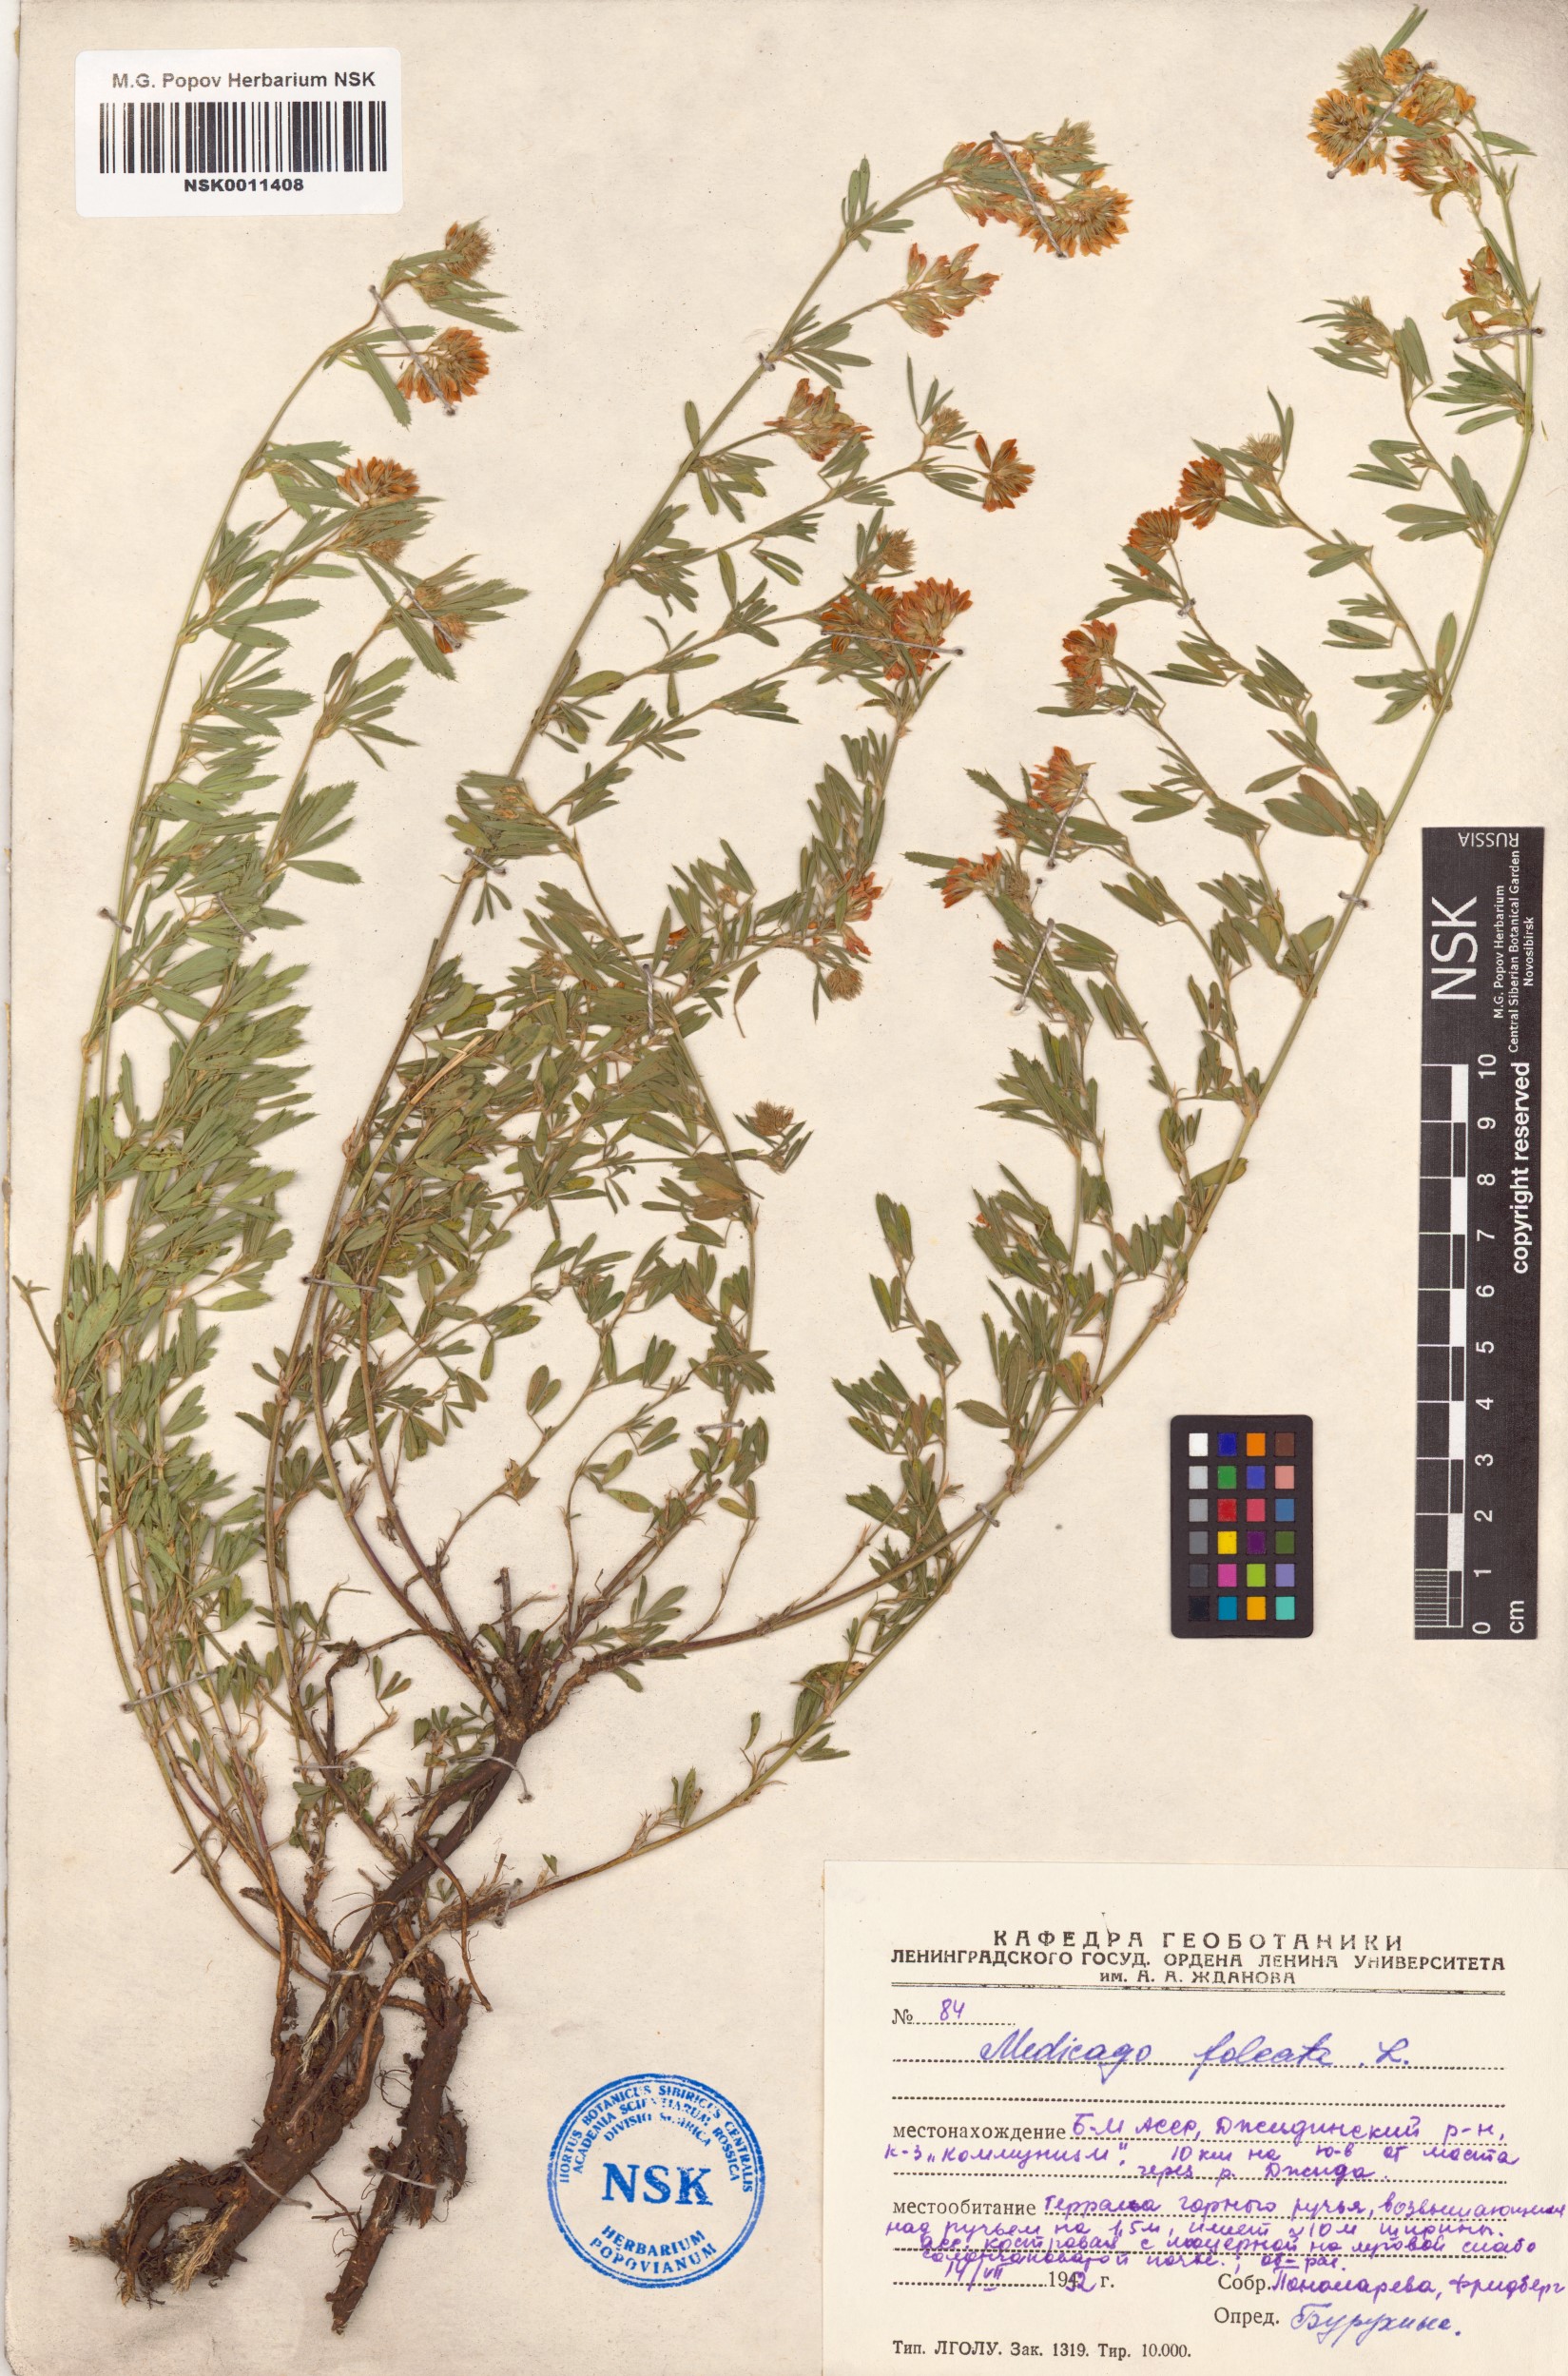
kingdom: Plantae
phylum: Tracheophyta
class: Magnoliopsida
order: Fabales
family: Fabaceae
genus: Medicago
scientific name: Medicago falcata
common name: Sickle medick
